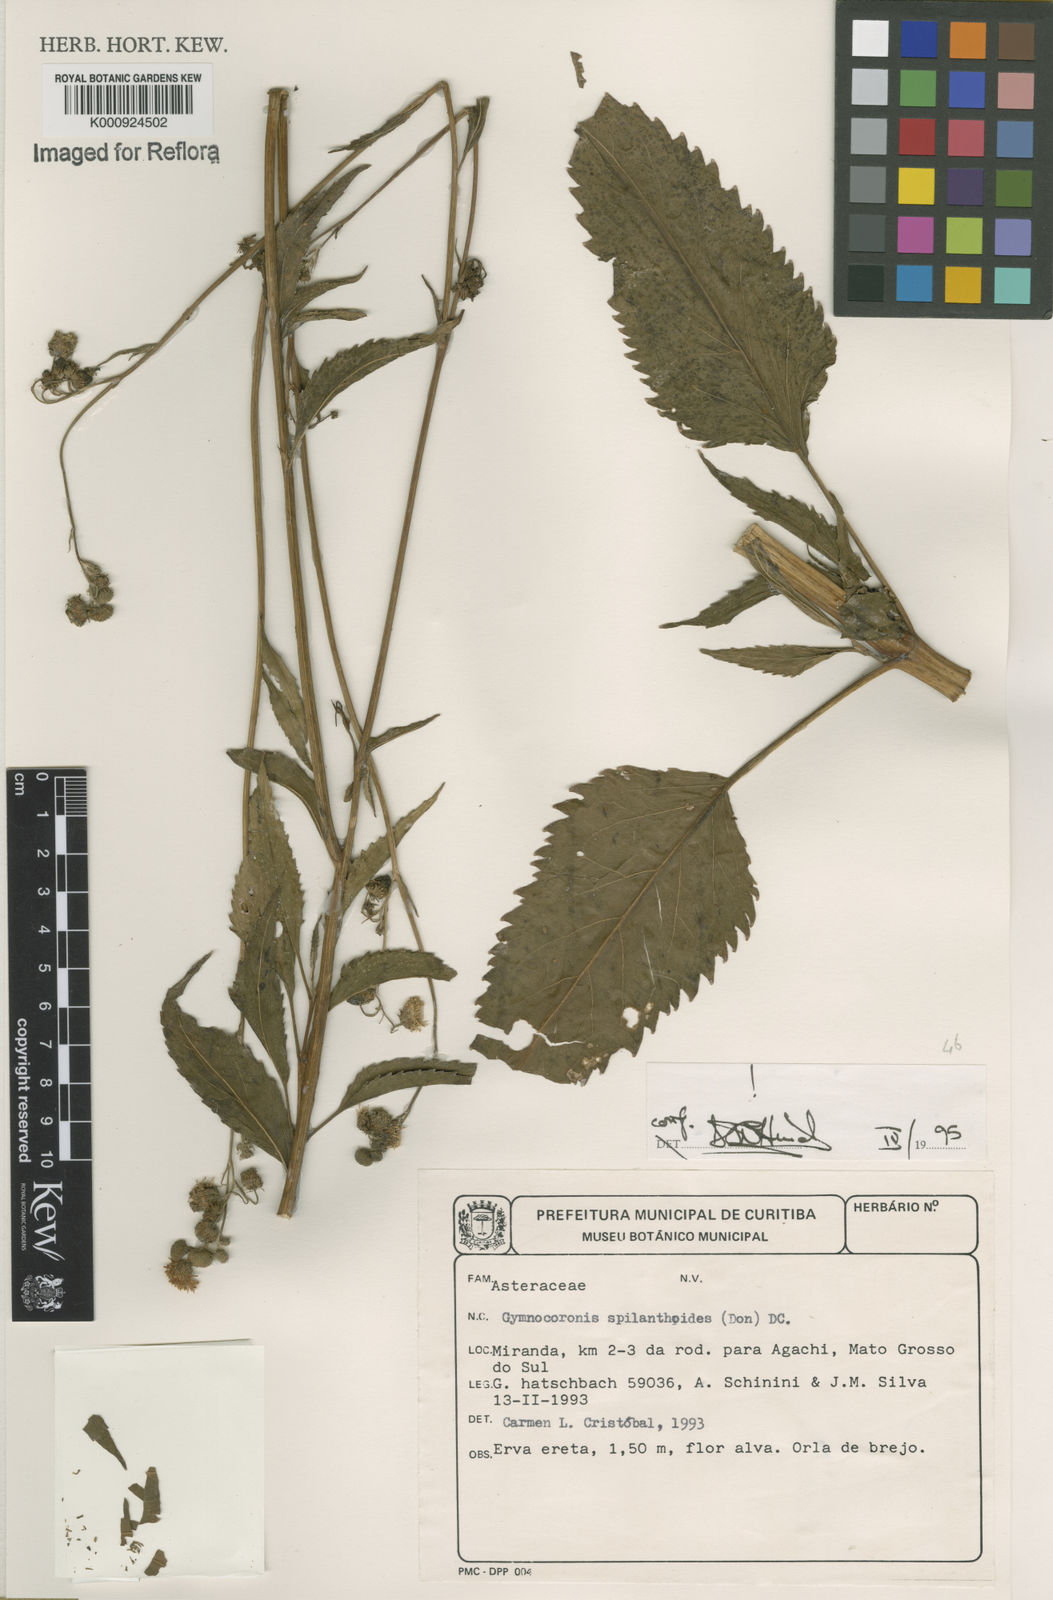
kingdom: Plantae
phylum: Tracheophyta
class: Magnoliopsida
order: Asterales
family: Asteraceae
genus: Gymnocoronis
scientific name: Gymnocoronis spilanthoides
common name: Senegal teaplant
